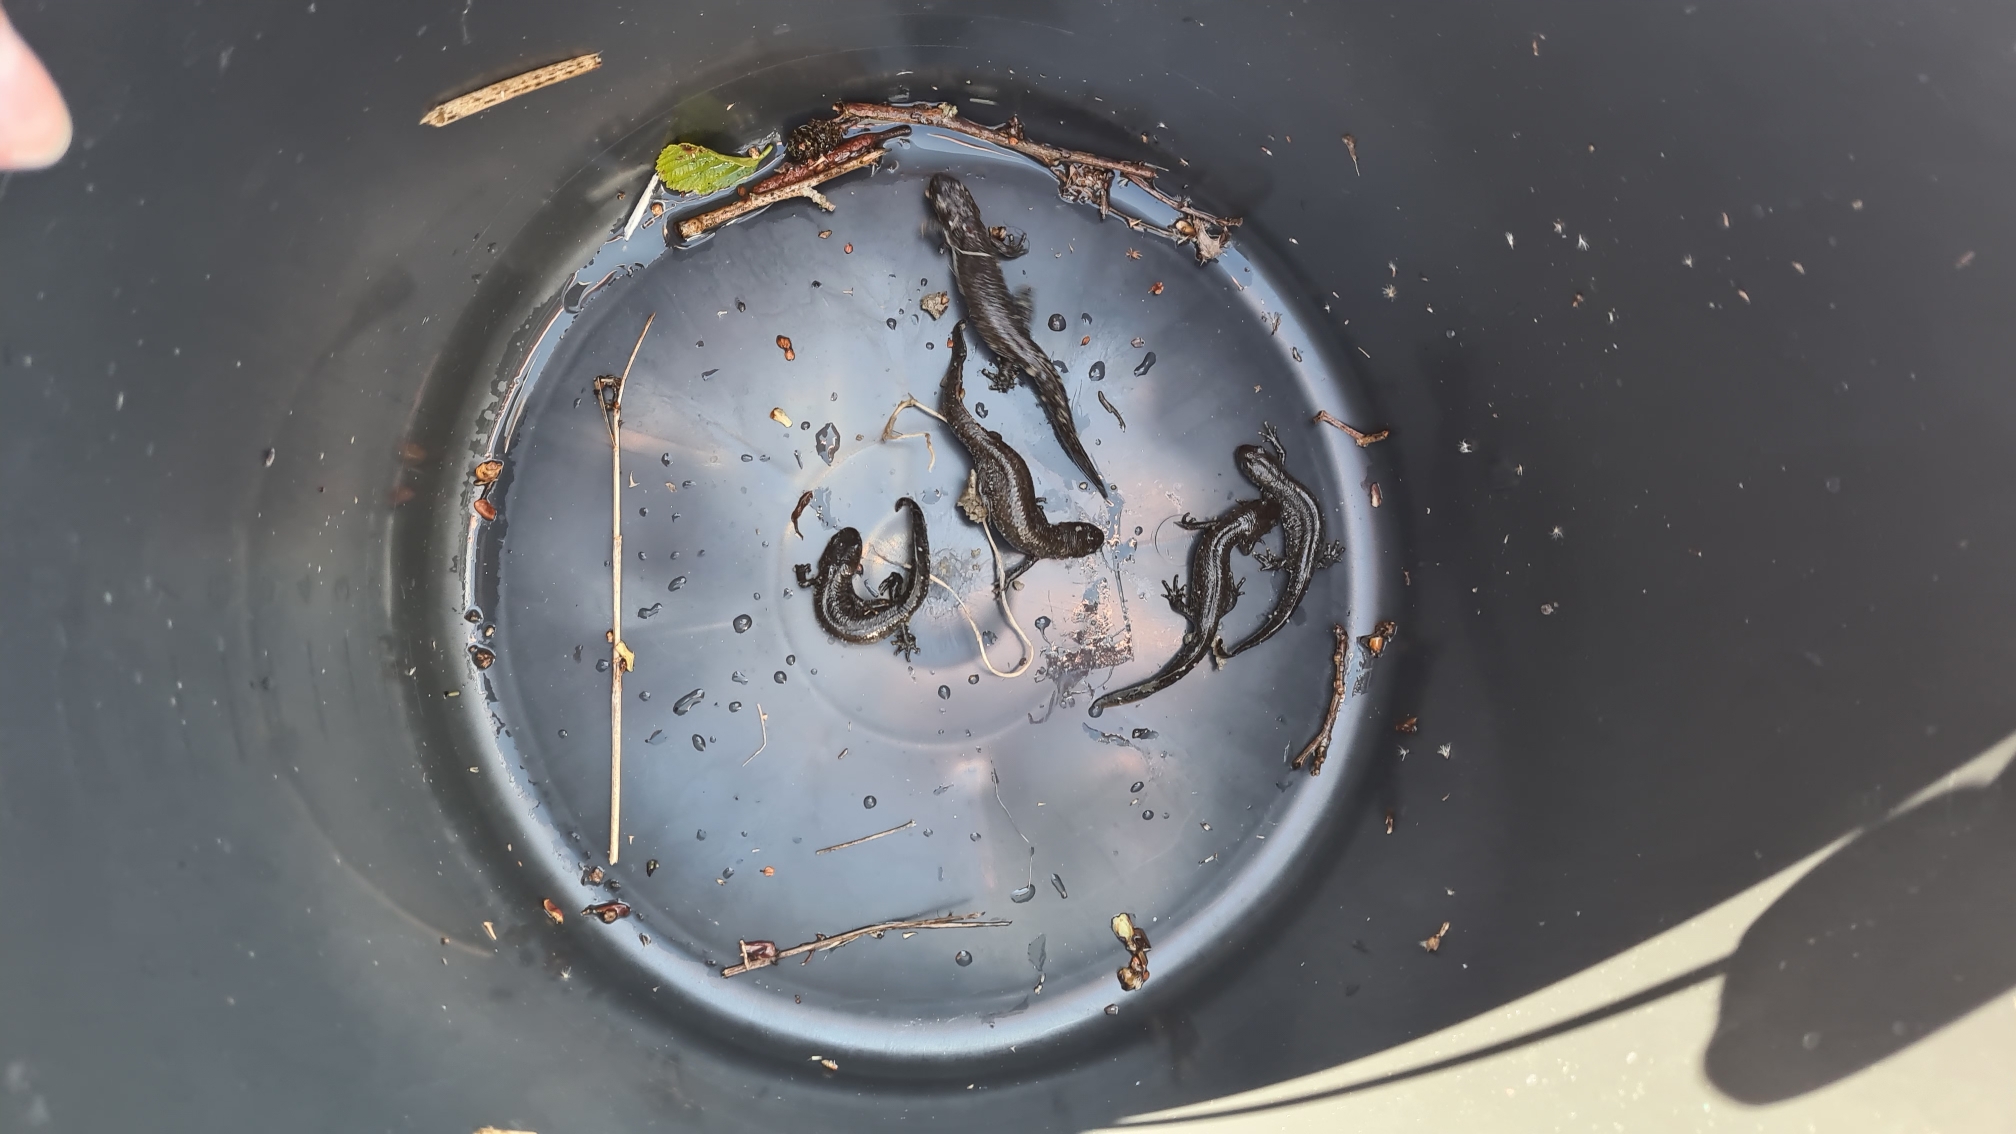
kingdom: Animalia
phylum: Chordata
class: Amphibia
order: Caudata
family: Salamandridae
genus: Triturus
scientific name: Triturus cristatus
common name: Stor vandsalamander
